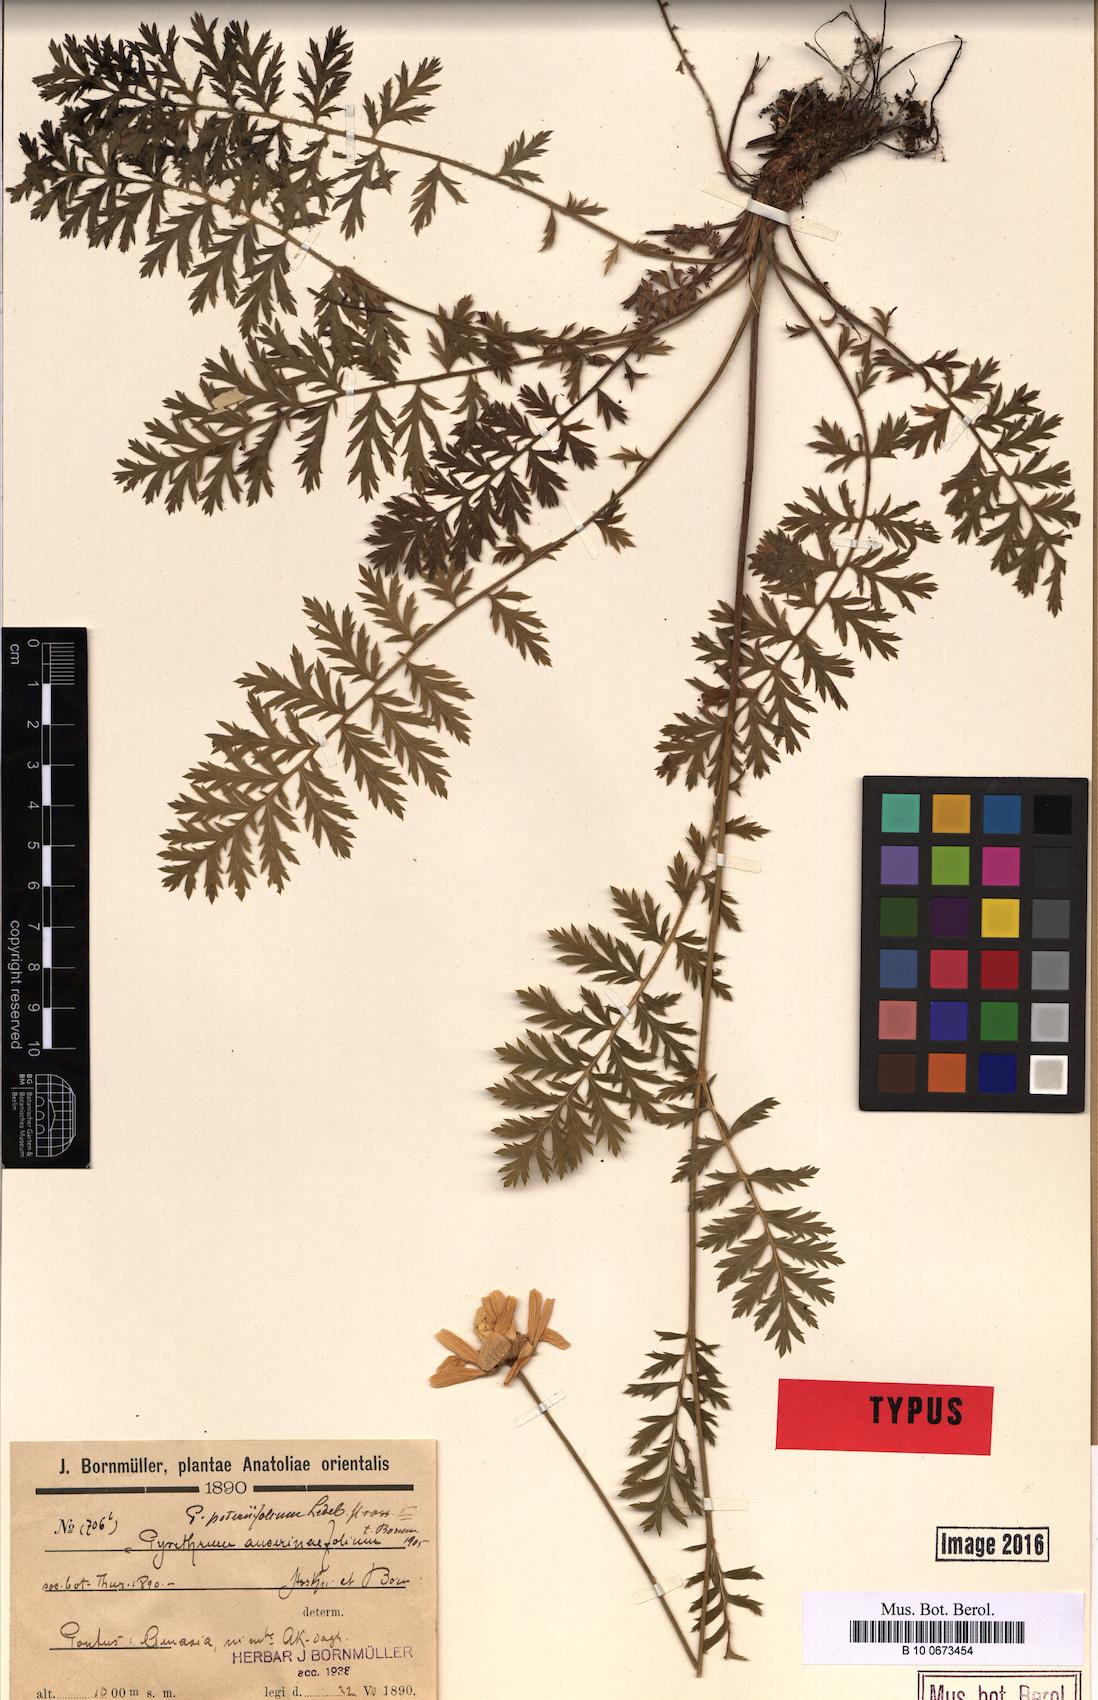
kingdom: Plantae
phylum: Tracheophyta
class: Magnoliopsida
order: Asterales
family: Asteraceae
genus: Tanacetum
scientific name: Tanacetum poteriifolium
